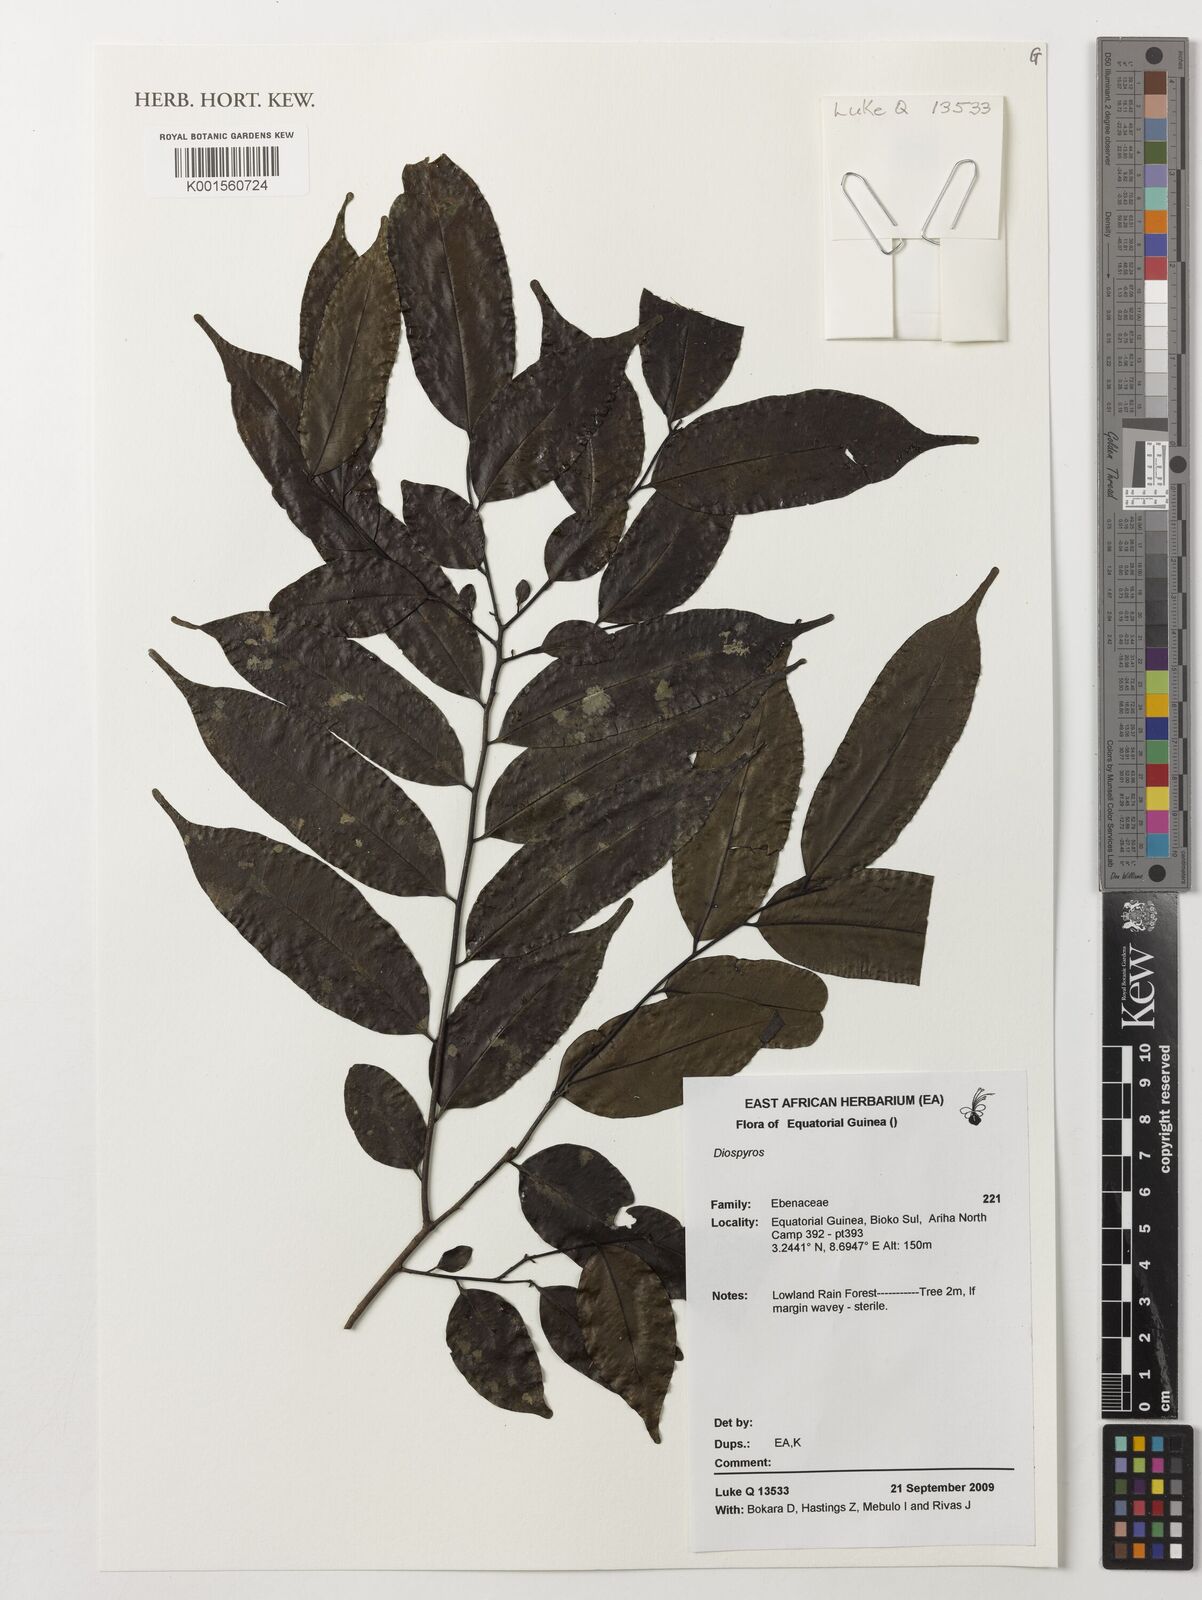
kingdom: Plantae
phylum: Tracheophyta
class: Magnoliopsida
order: Ericales
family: Ebenaceae
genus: Diospyros
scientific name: Diospyros
